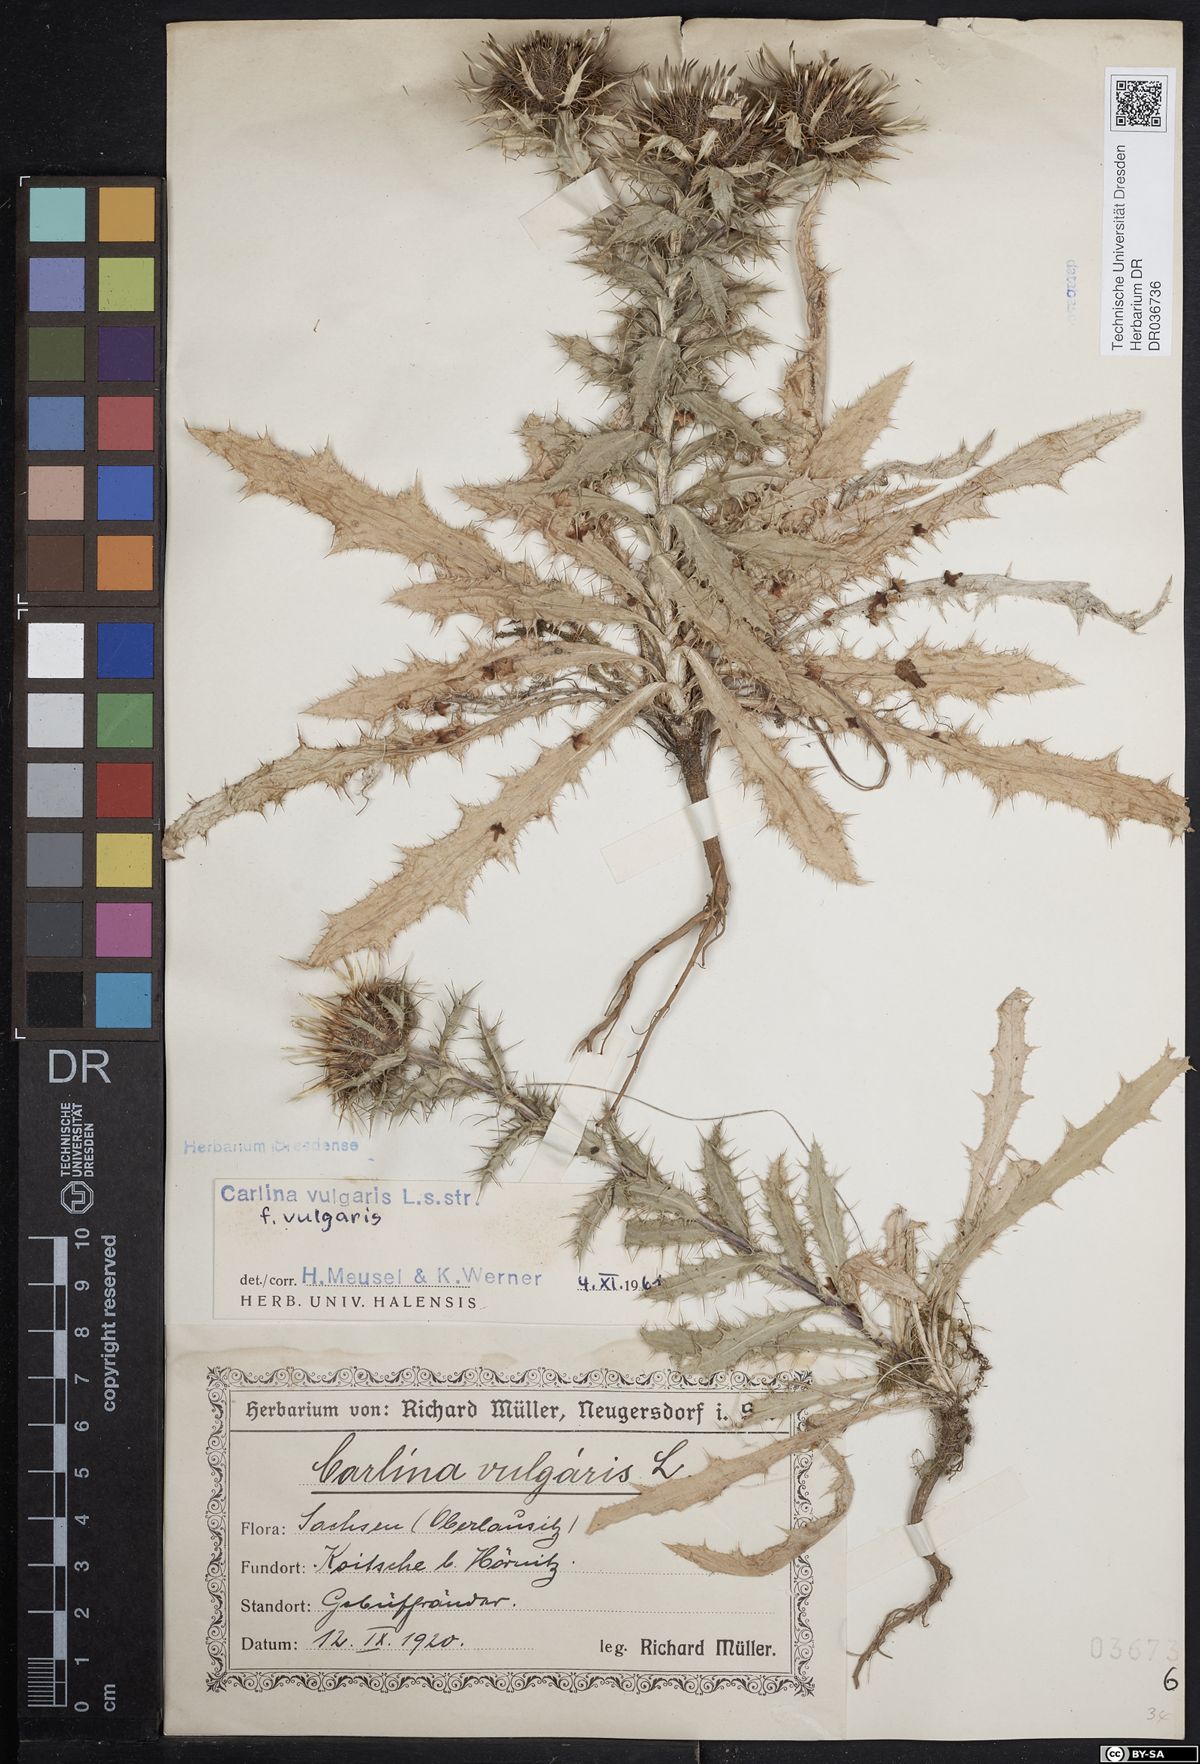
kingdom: Plantae
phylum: Tracheophyta
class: Magnoliopsida
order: Asterales
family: Asteraceae
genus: Carlina
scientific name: Carlina vulgaris
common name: Carline thistle
